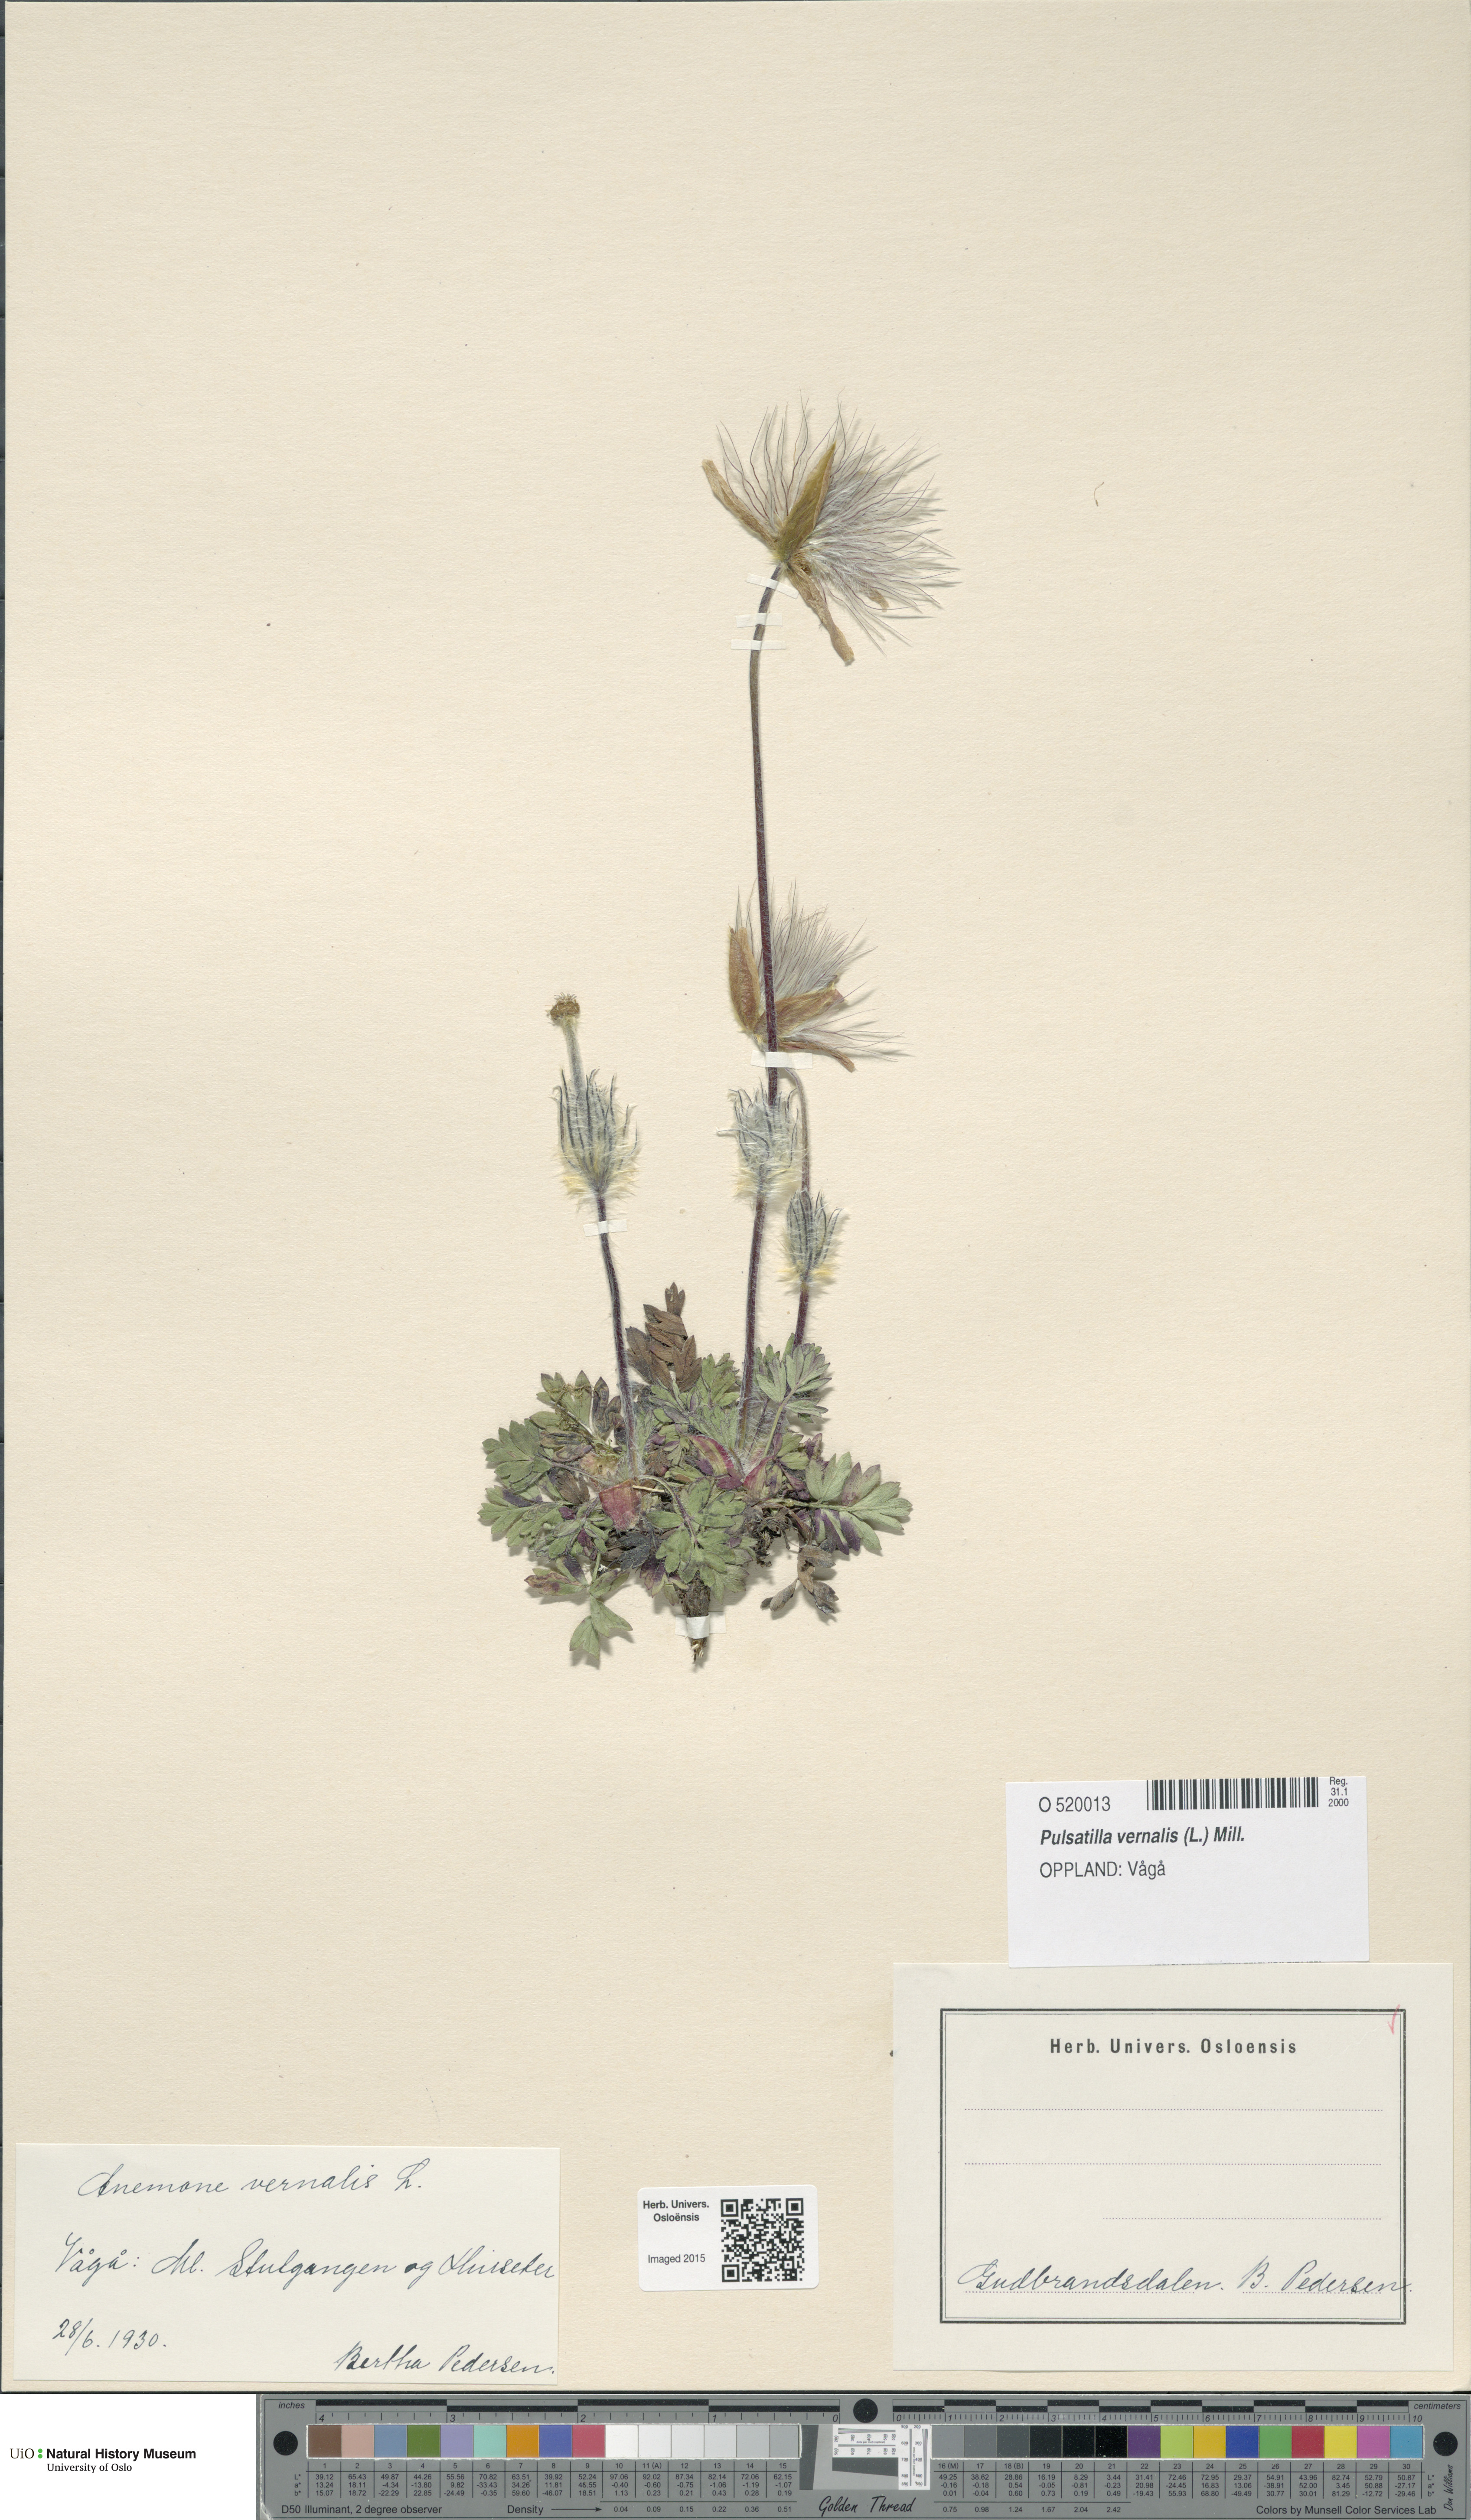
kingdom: Plantae
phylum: Tracheophyta
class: Magnoliopsida
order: Ranunculales
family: Ranunculaceae
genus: Pulsatilla
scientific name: Pulsatilla vernalis
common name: Spring pasque flower
